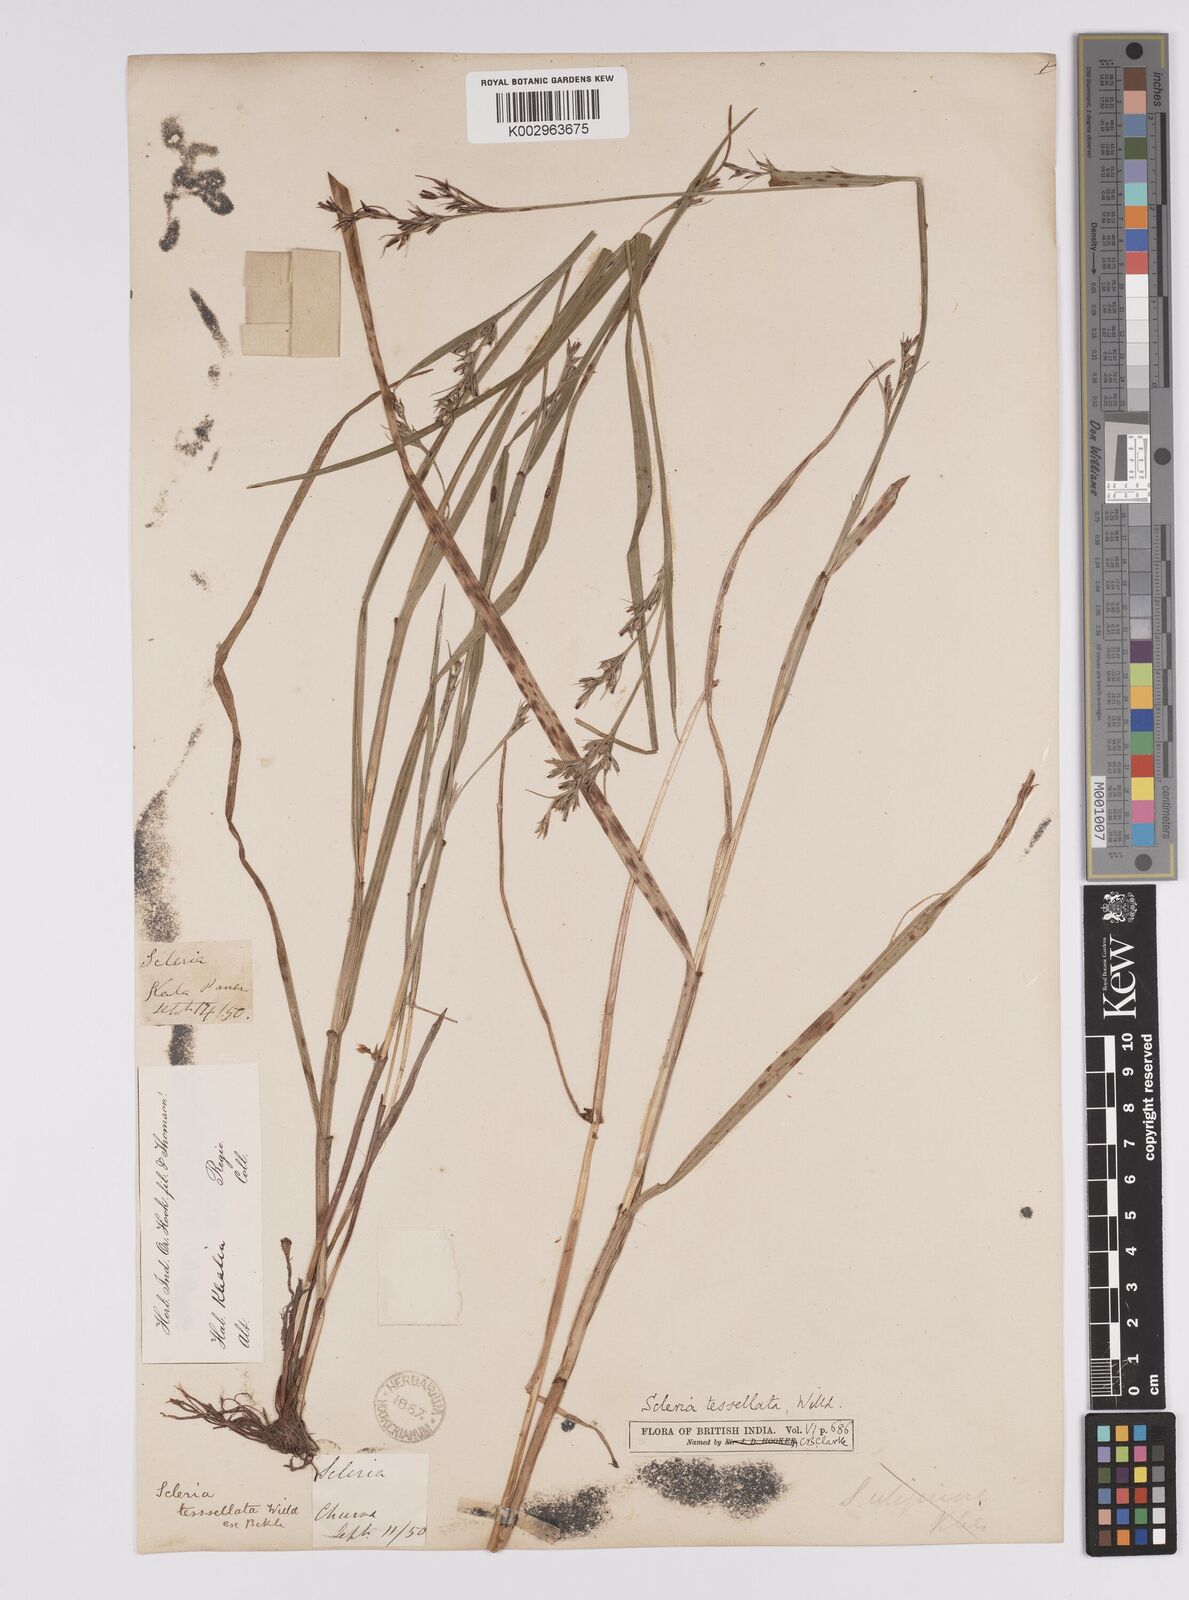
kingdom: Plantae
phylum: Tracheophyta
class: Liliopsida
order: Poales
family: Cyperaceae
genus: Scleria
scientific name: Scleria parvula
